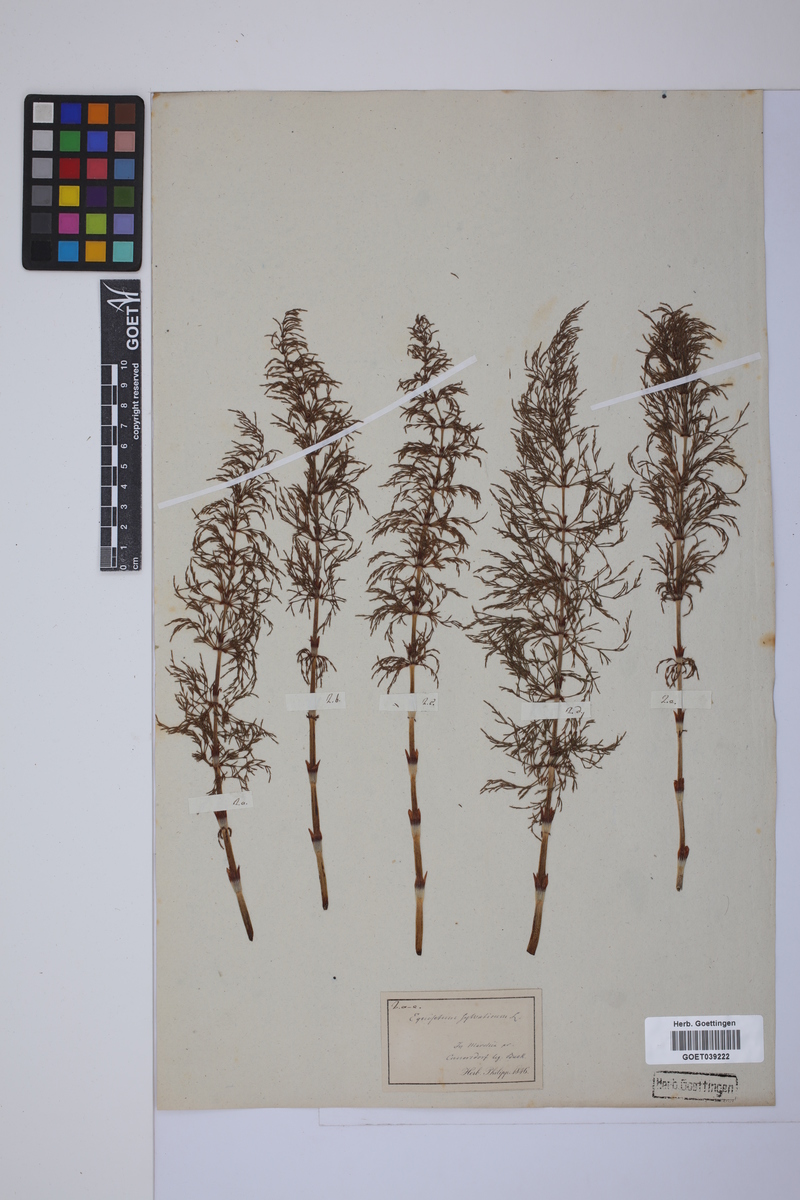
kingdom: Plantae
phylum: Tracheophyta
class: Polypodiopsida
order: Equisetales
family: Equisetaceae
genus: Equisetum
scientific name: Equisetum sylvaticum
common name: Wood horsetail
